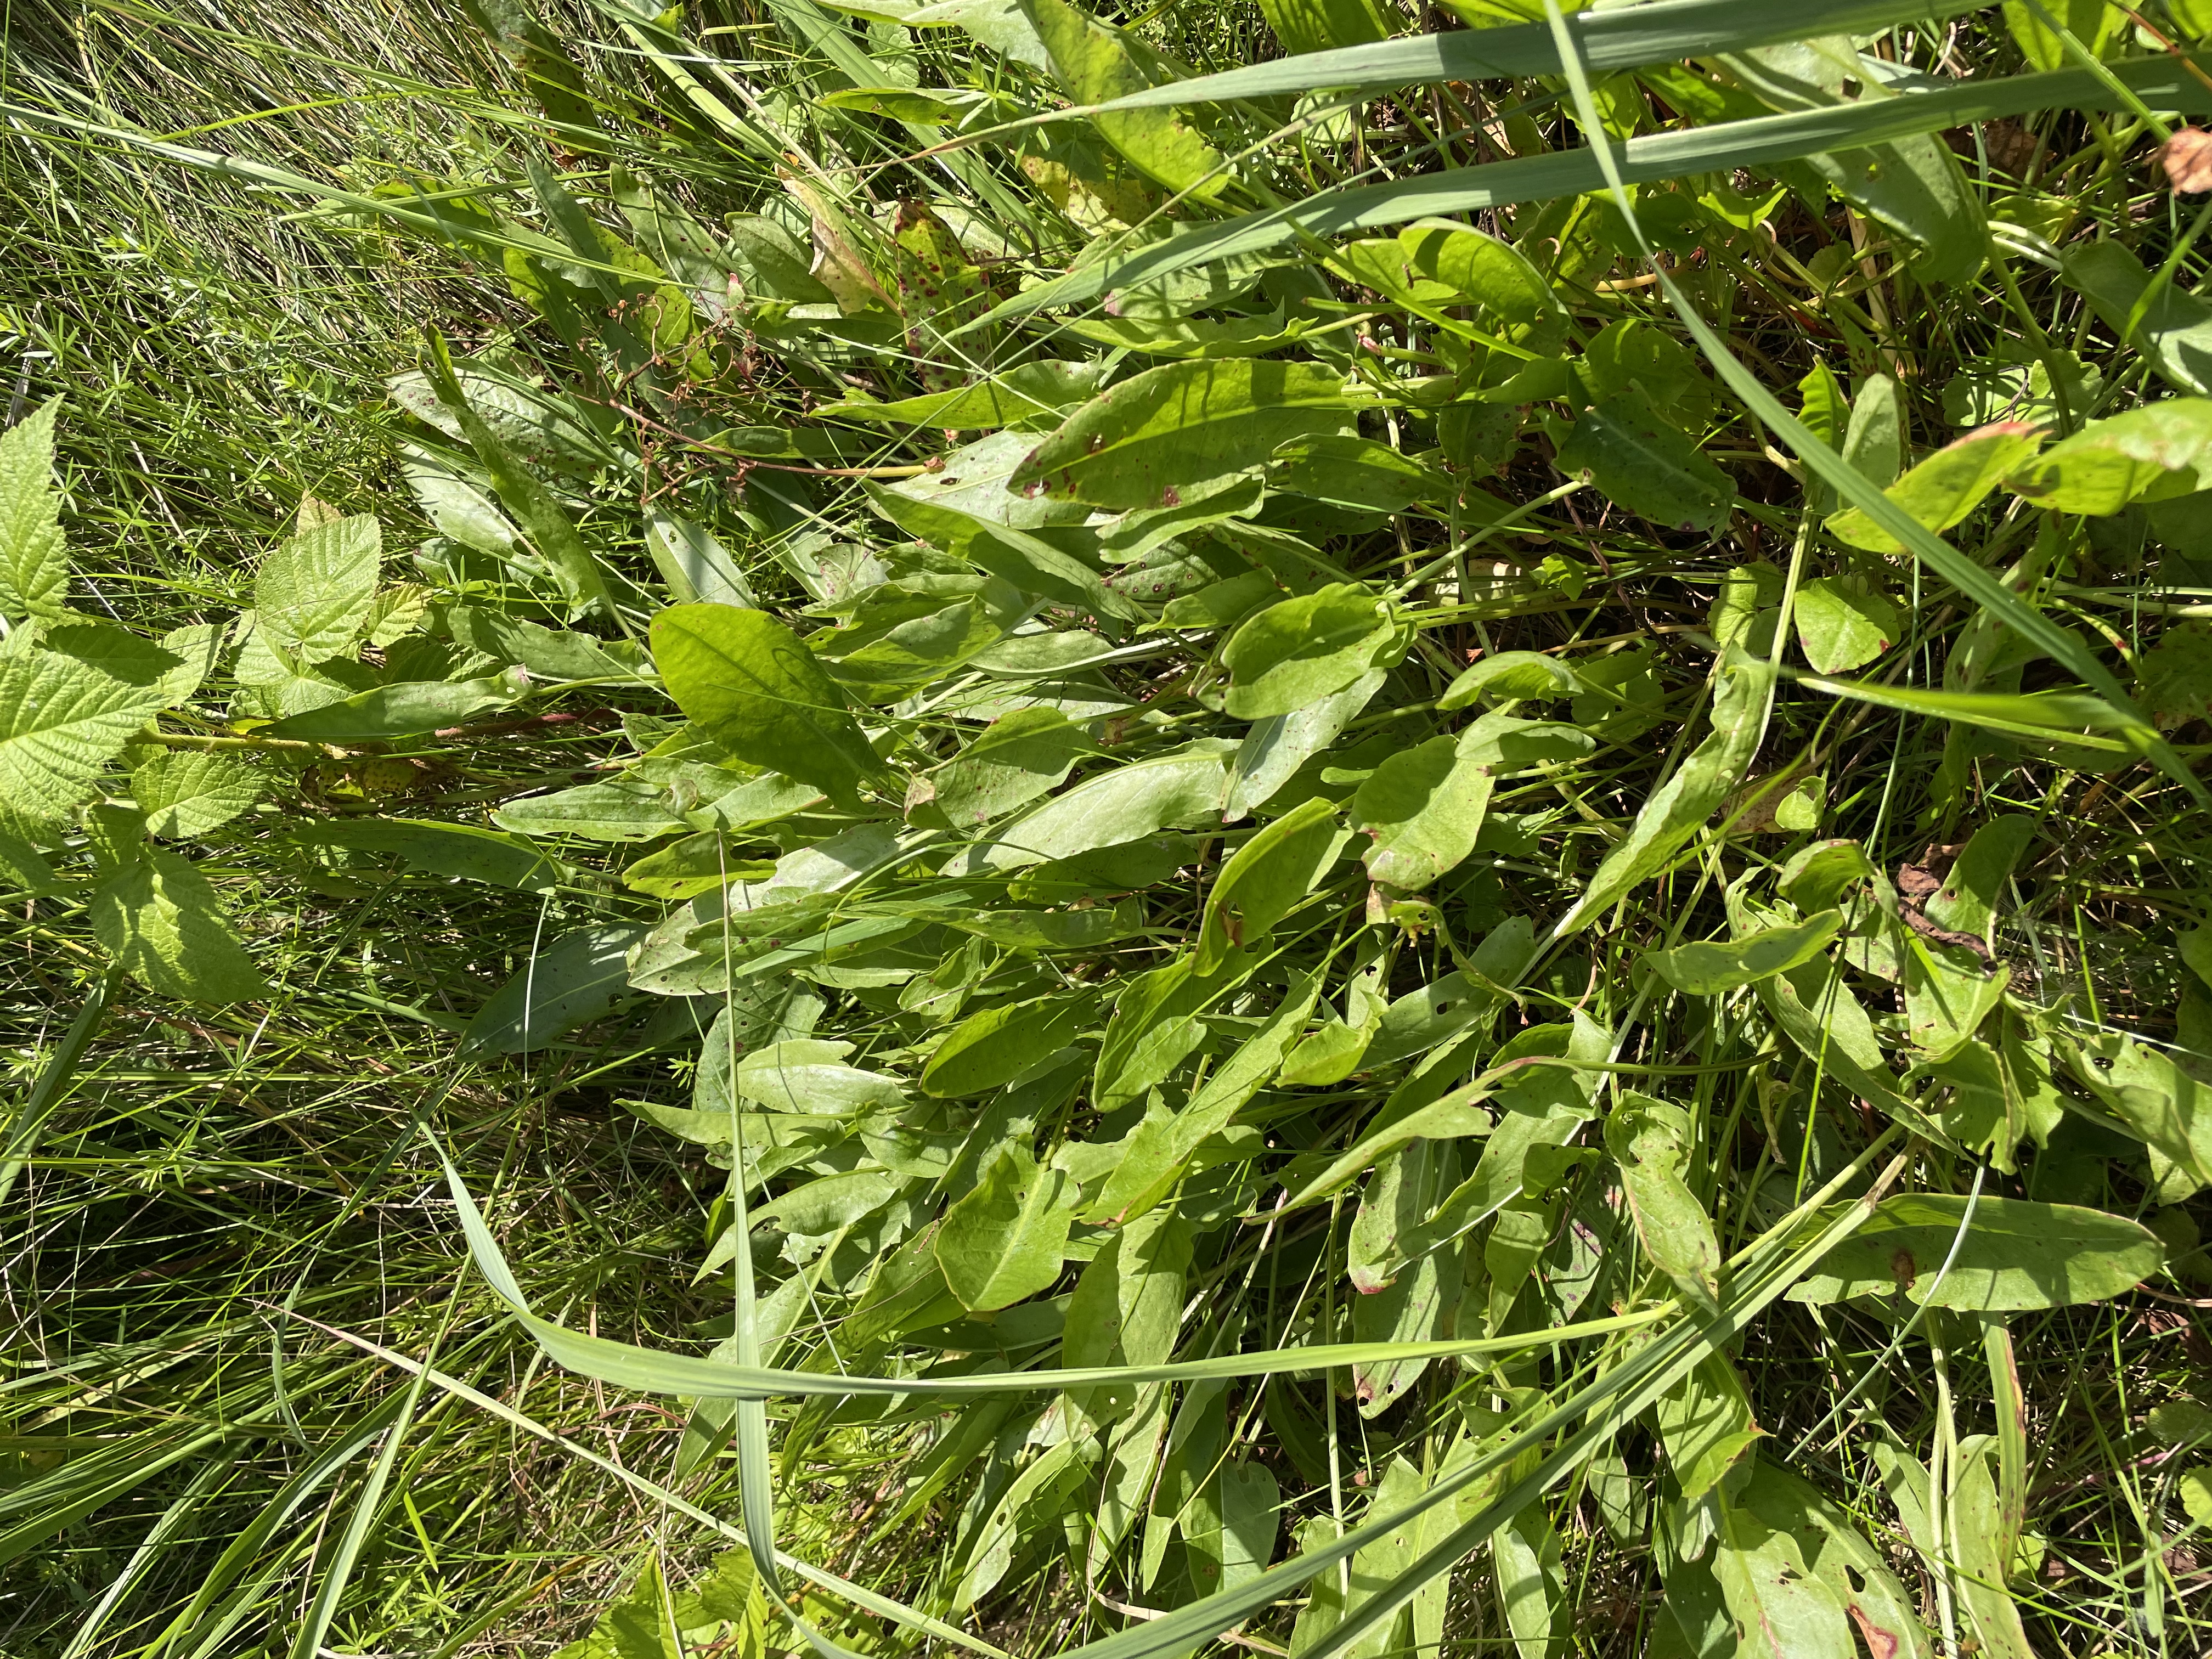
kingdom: Plantae
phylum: Tracheophyta
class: Magnoliopsida
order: Lamiales
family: Scrophulariaceae
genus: Verbascum
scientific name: Verbascum nigrum
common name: Mørk kongelys
